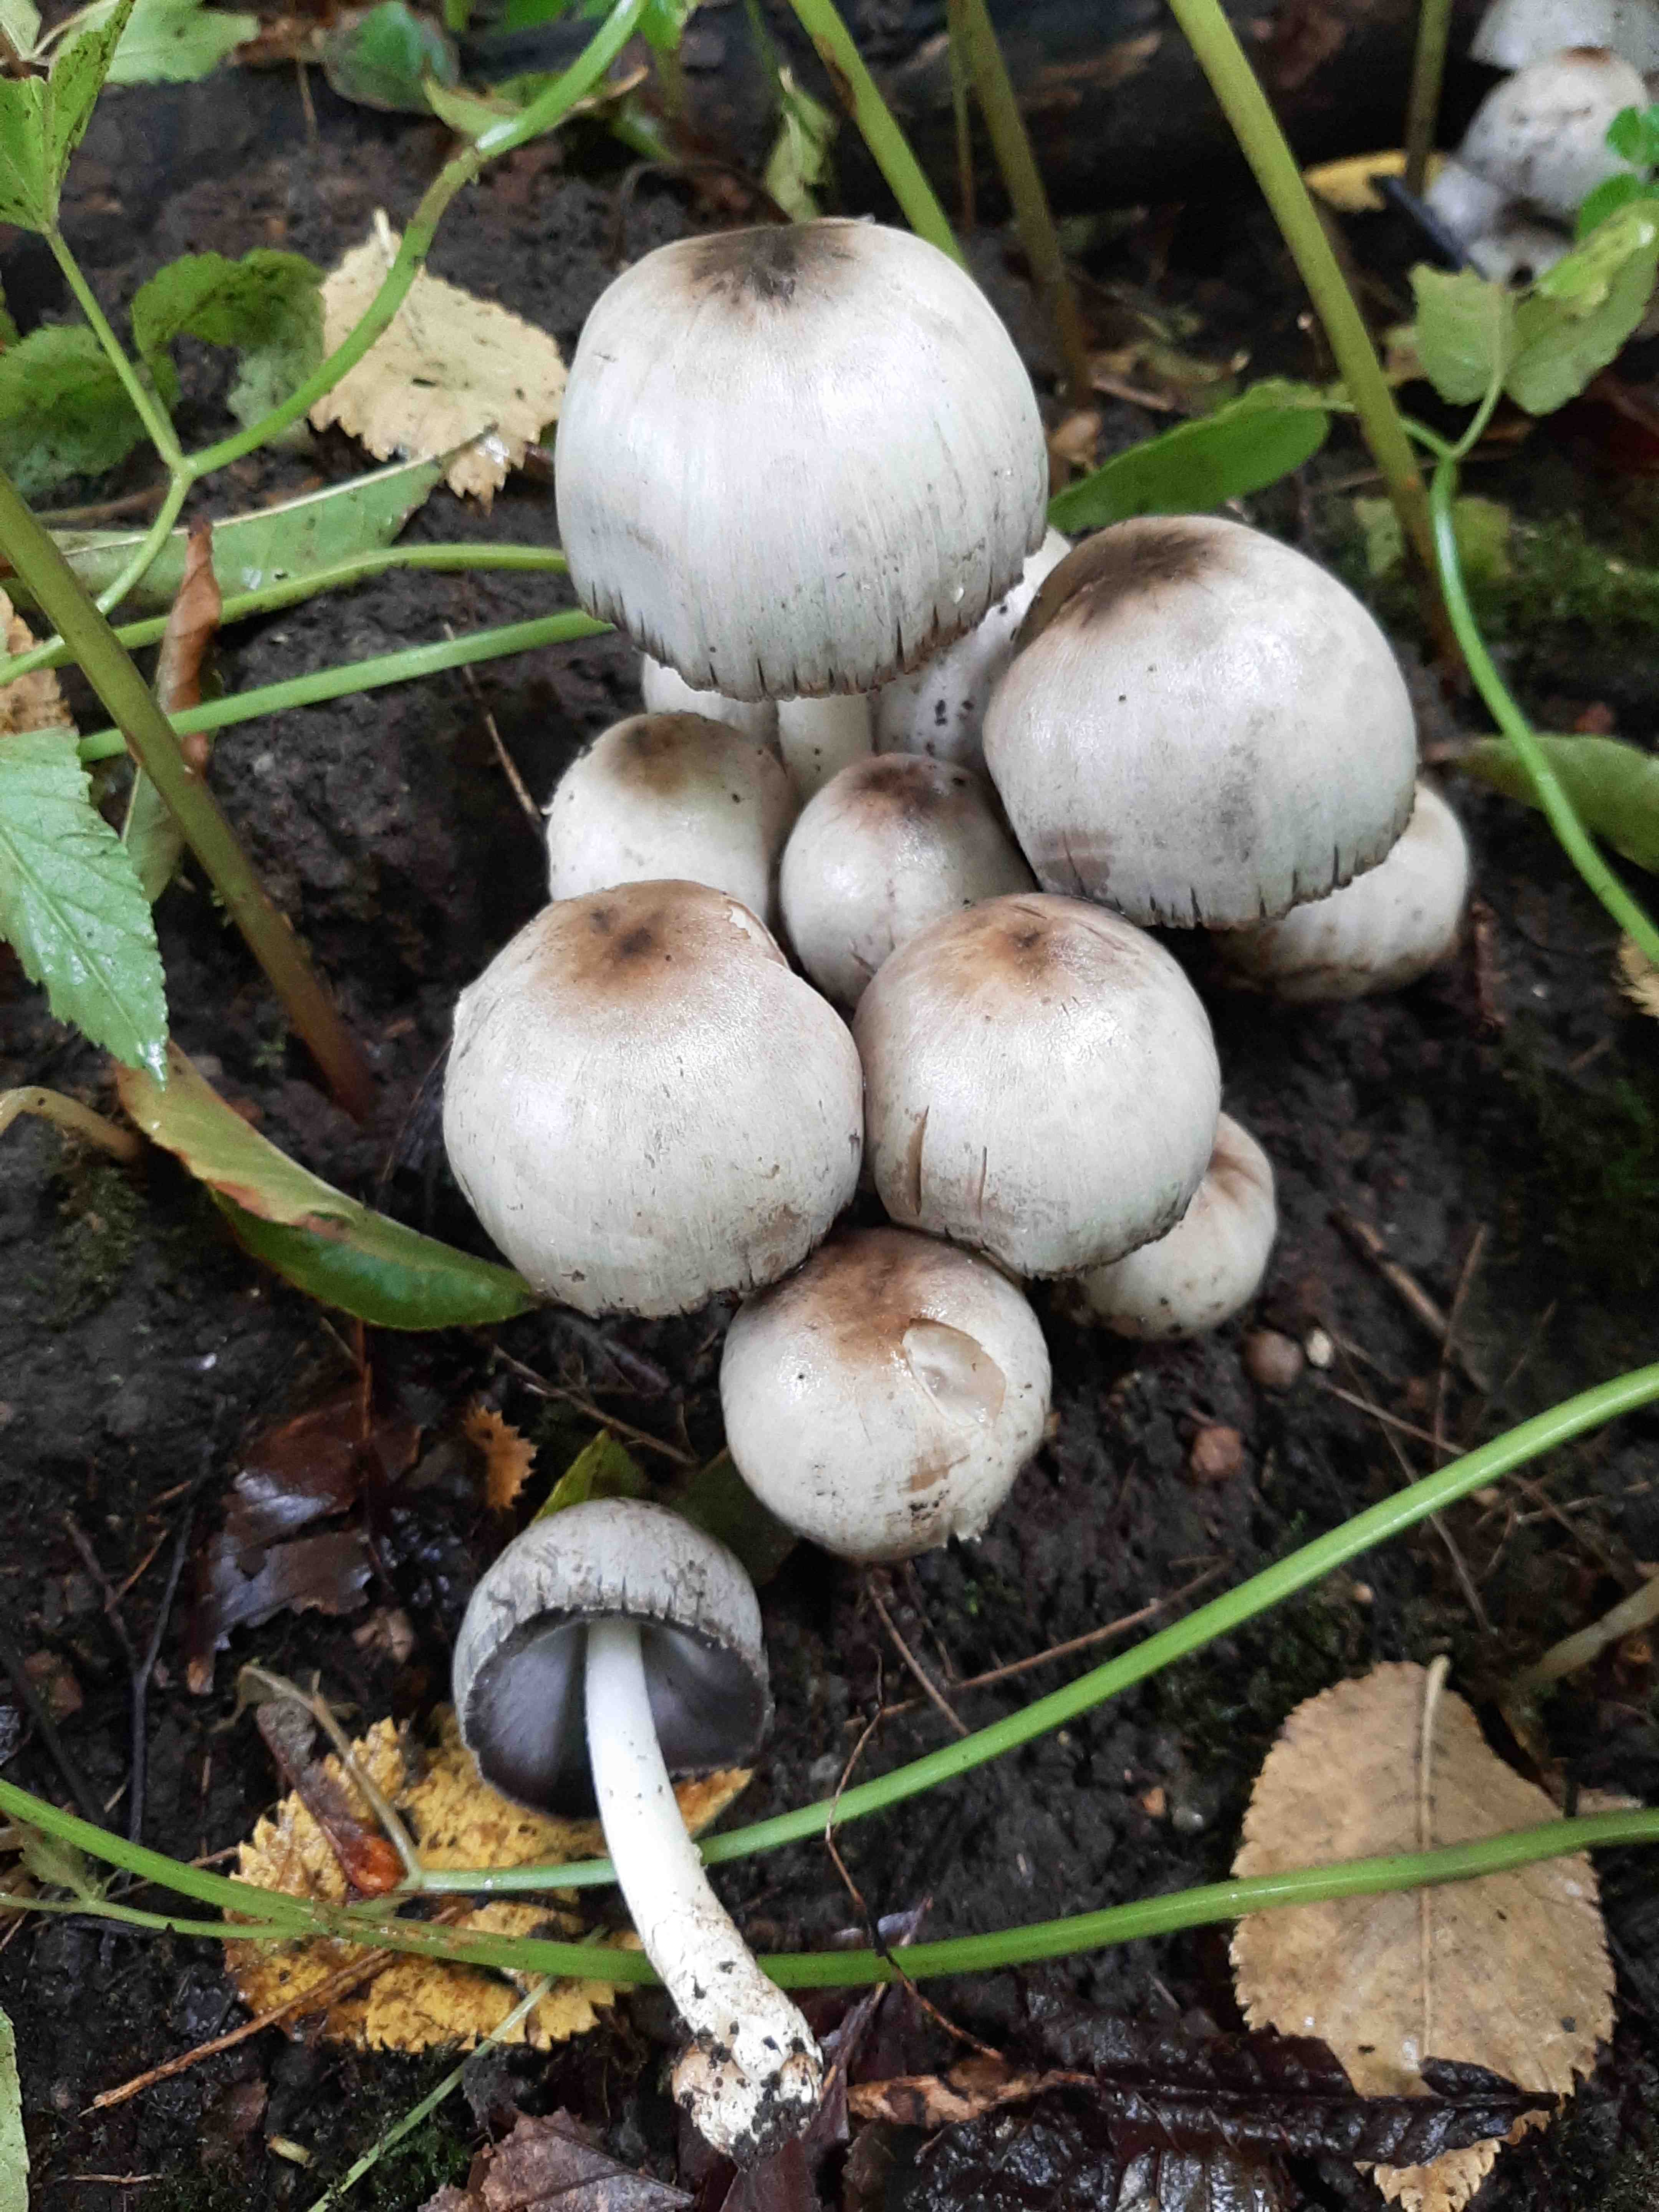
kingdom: Fungi
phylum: Basidiomycota
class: Agaricomycetes
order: Agaricales
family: Psathyrellaceae
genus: Coprinopsis
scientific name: Coprinopsis atramentaria
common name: almindelig blækhat
